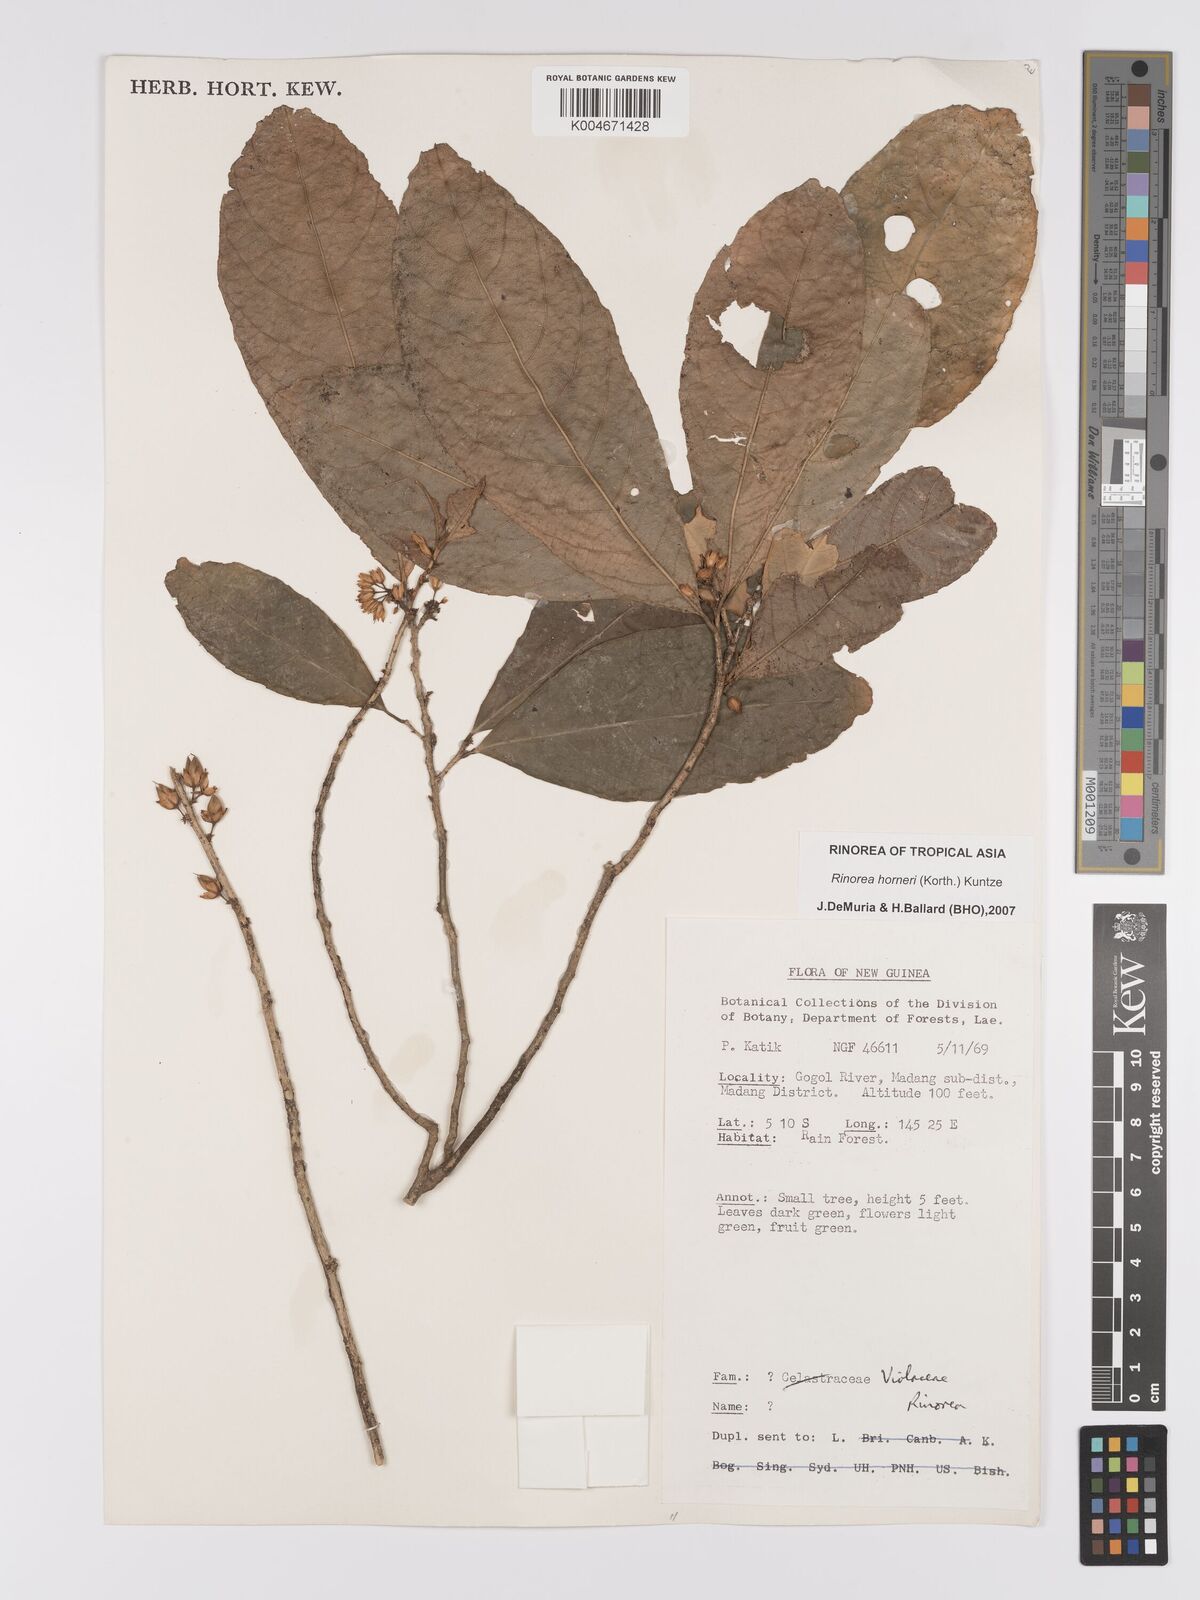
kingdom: Plantae
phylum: Tracheophyta
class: Magnoliopsida
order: Malpighiales
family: Violaceae
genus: Rinorea
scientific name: Rinorea horneri
